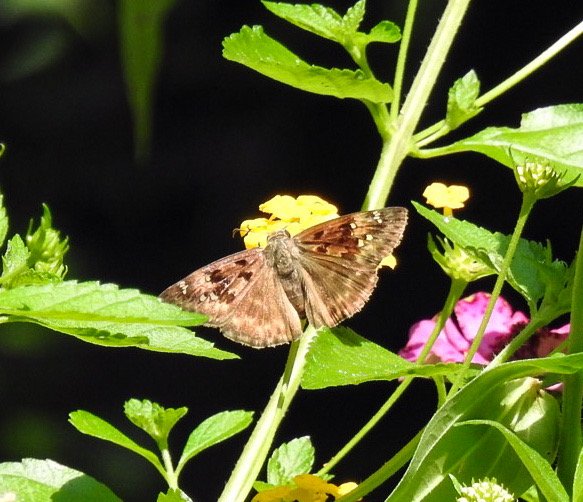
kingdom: Animalia
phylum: Arthropoda
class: Insecta
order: Lepidoptera
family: Hesperiidae
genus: Gesta
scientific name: Gesta
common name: Horace's Duskywing
